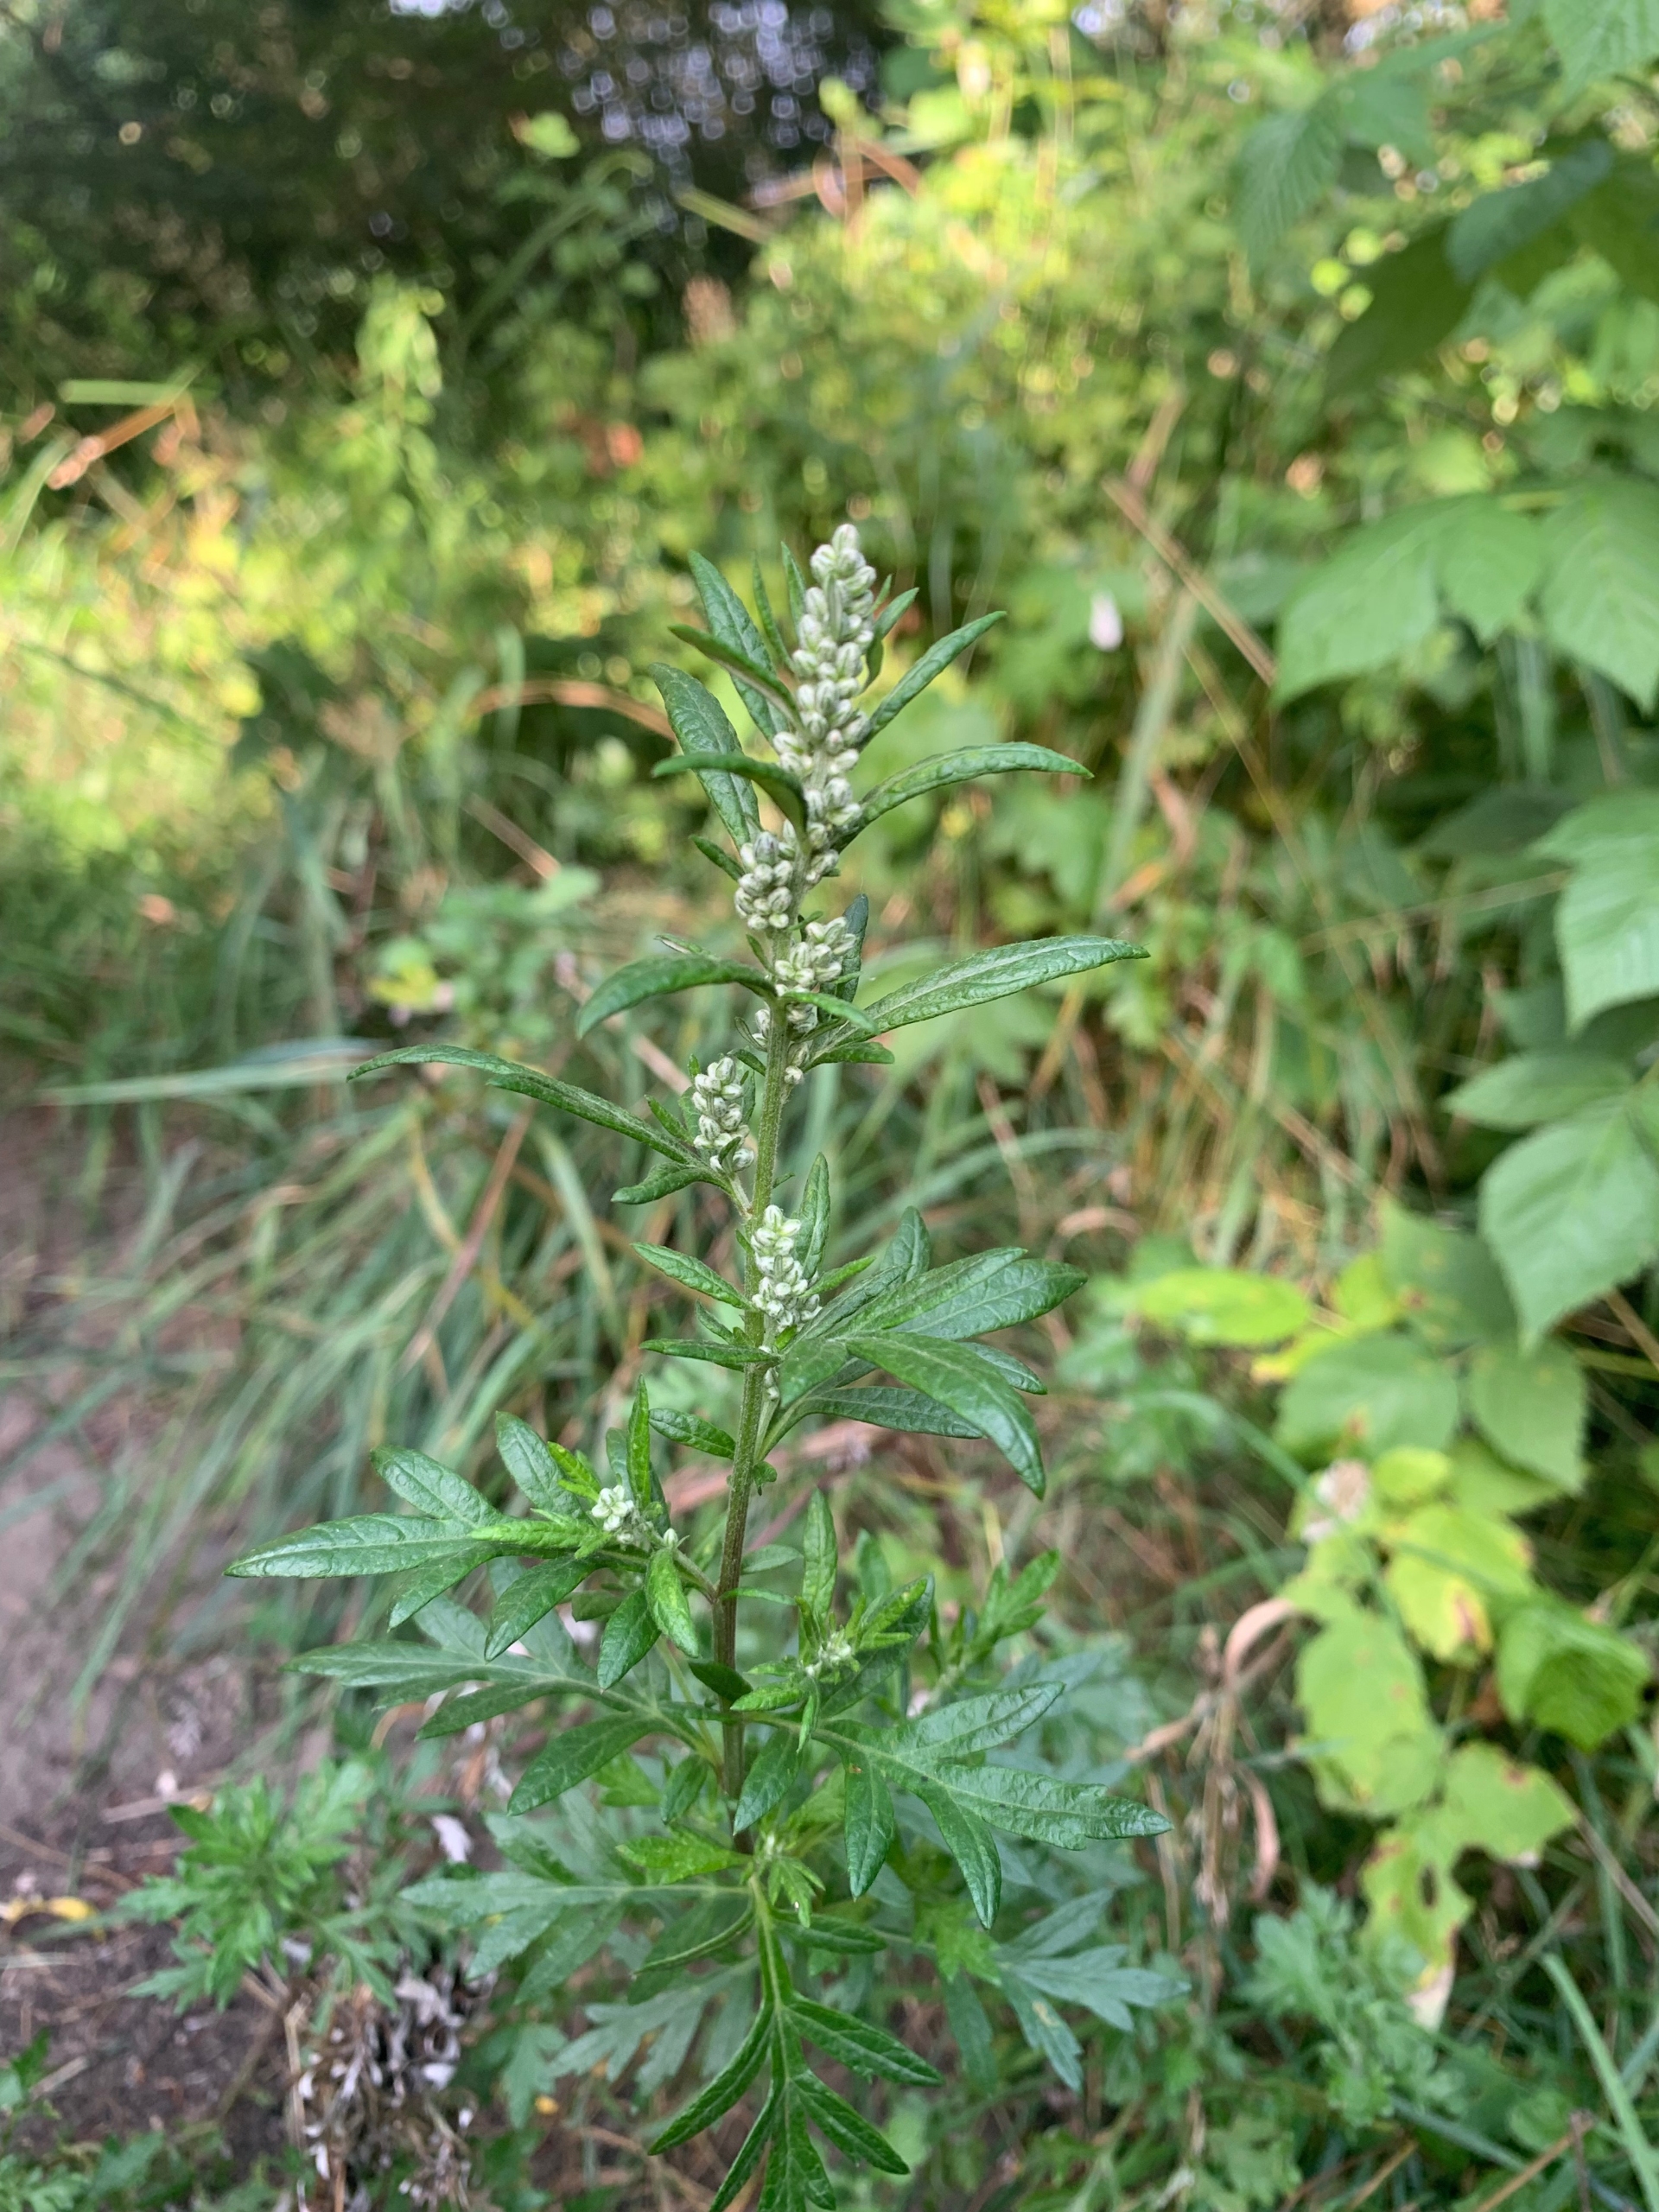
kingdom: Plantae
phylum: Tracheophyta
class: Magnoliopsida
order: Asterales
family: Asteraceae
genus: Artemisia
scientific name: Artemisia vulgaris
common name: Grå-bynke
